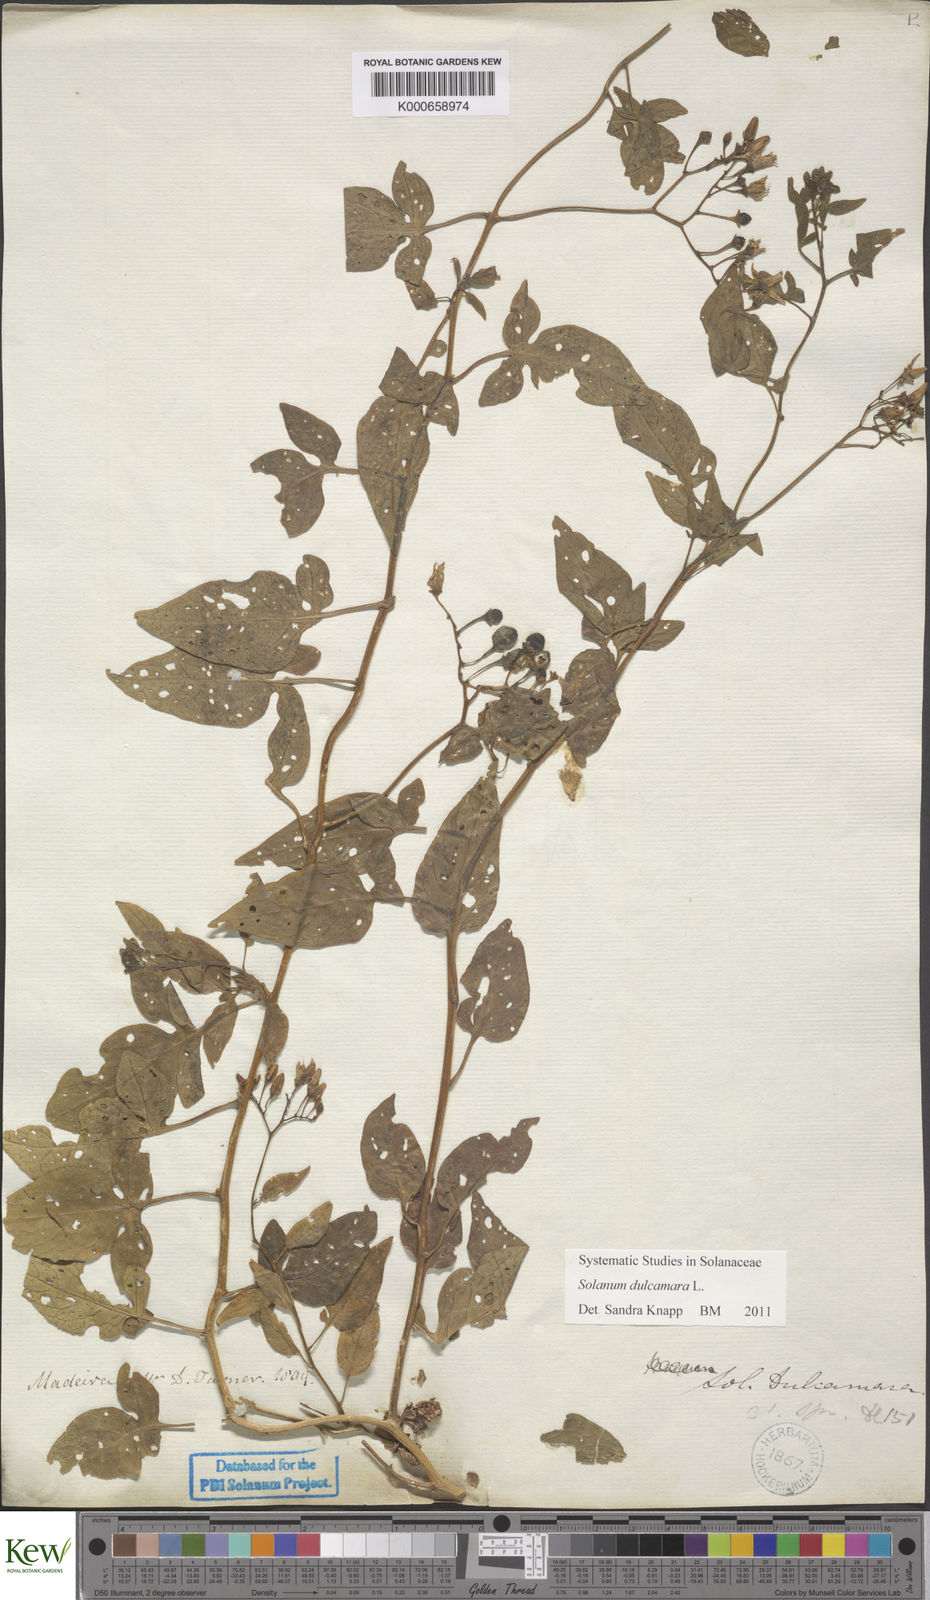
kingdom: Plantae
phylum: Tracheophyta
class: Magnoliopsida
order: Solanales
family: Solanaceae
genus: Solanum
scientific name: Solanum dulcamara
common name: Climbing nightshade
